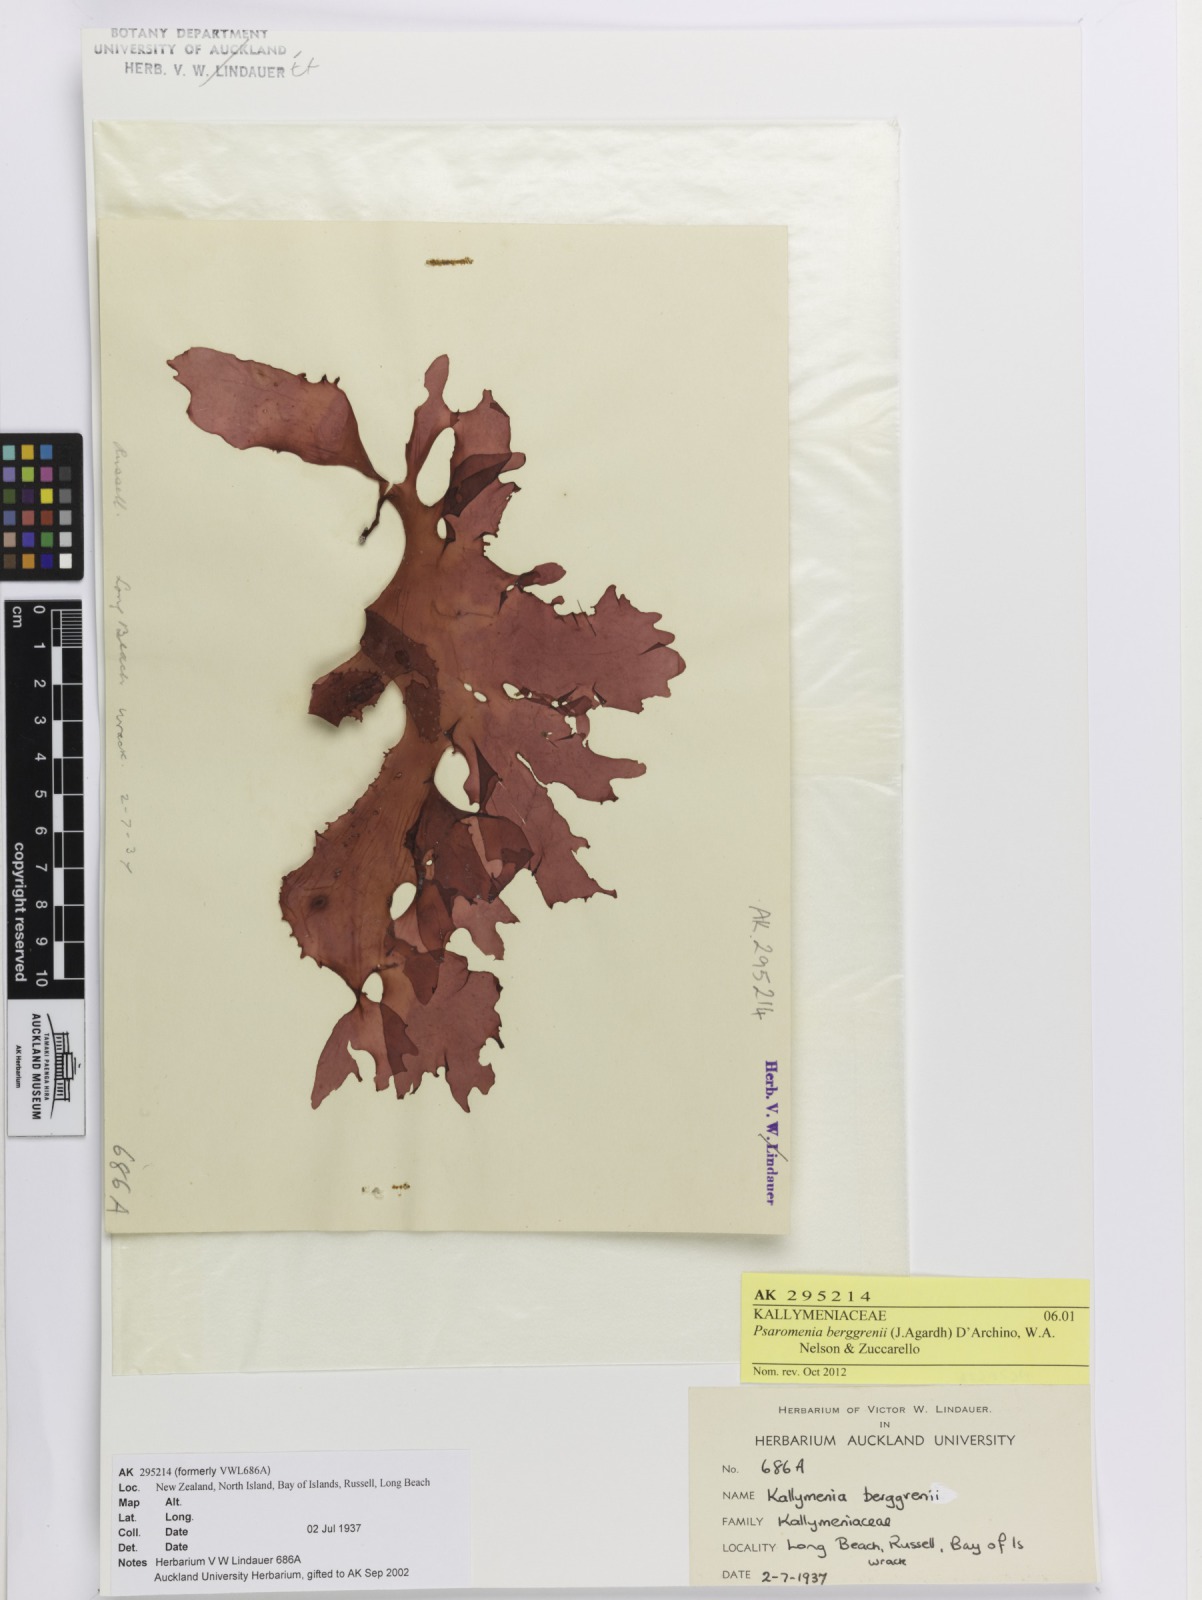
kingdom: Plantae
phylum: Rhodophyta
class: Florideophyceae
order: Gigartinales
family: Kallymeniaceae
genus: Psaromenia
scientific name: Psaromenia berggrenii
